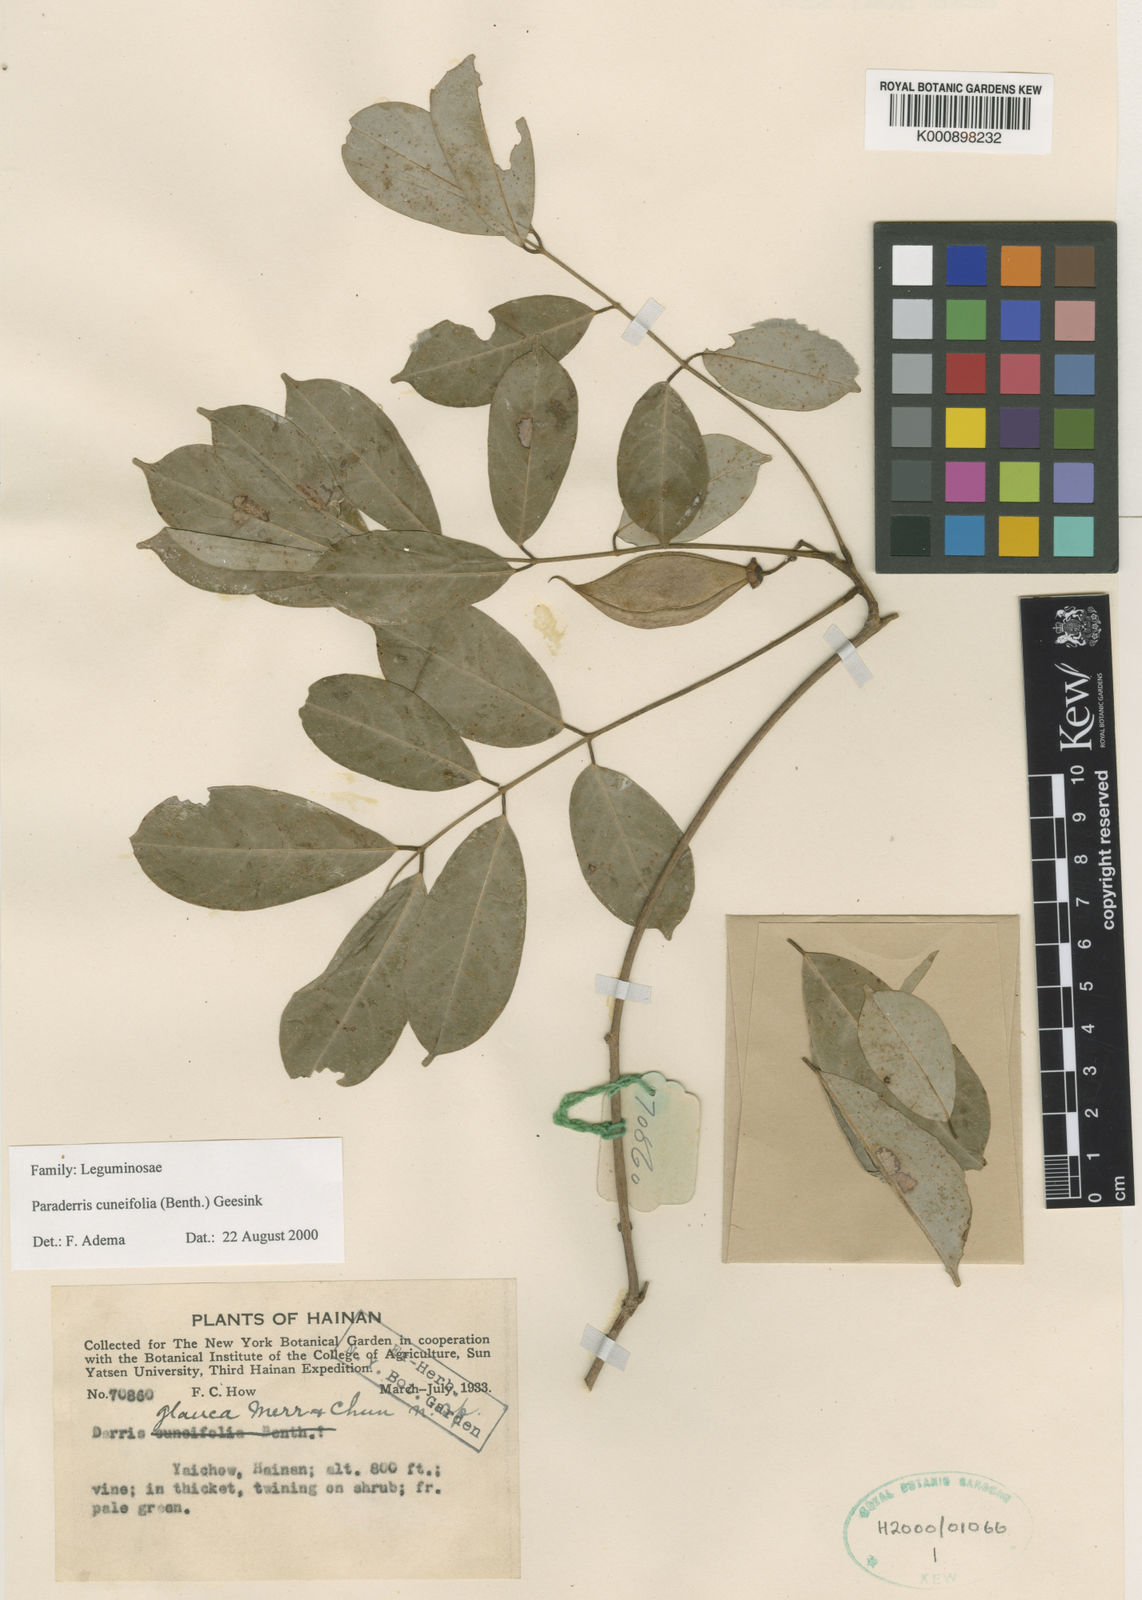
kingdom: Plantae
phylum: Tracheophyta
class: Magnoliopsida
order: Fabales
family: Fabaceae
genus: Derris
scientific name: Derris cuneifolia
